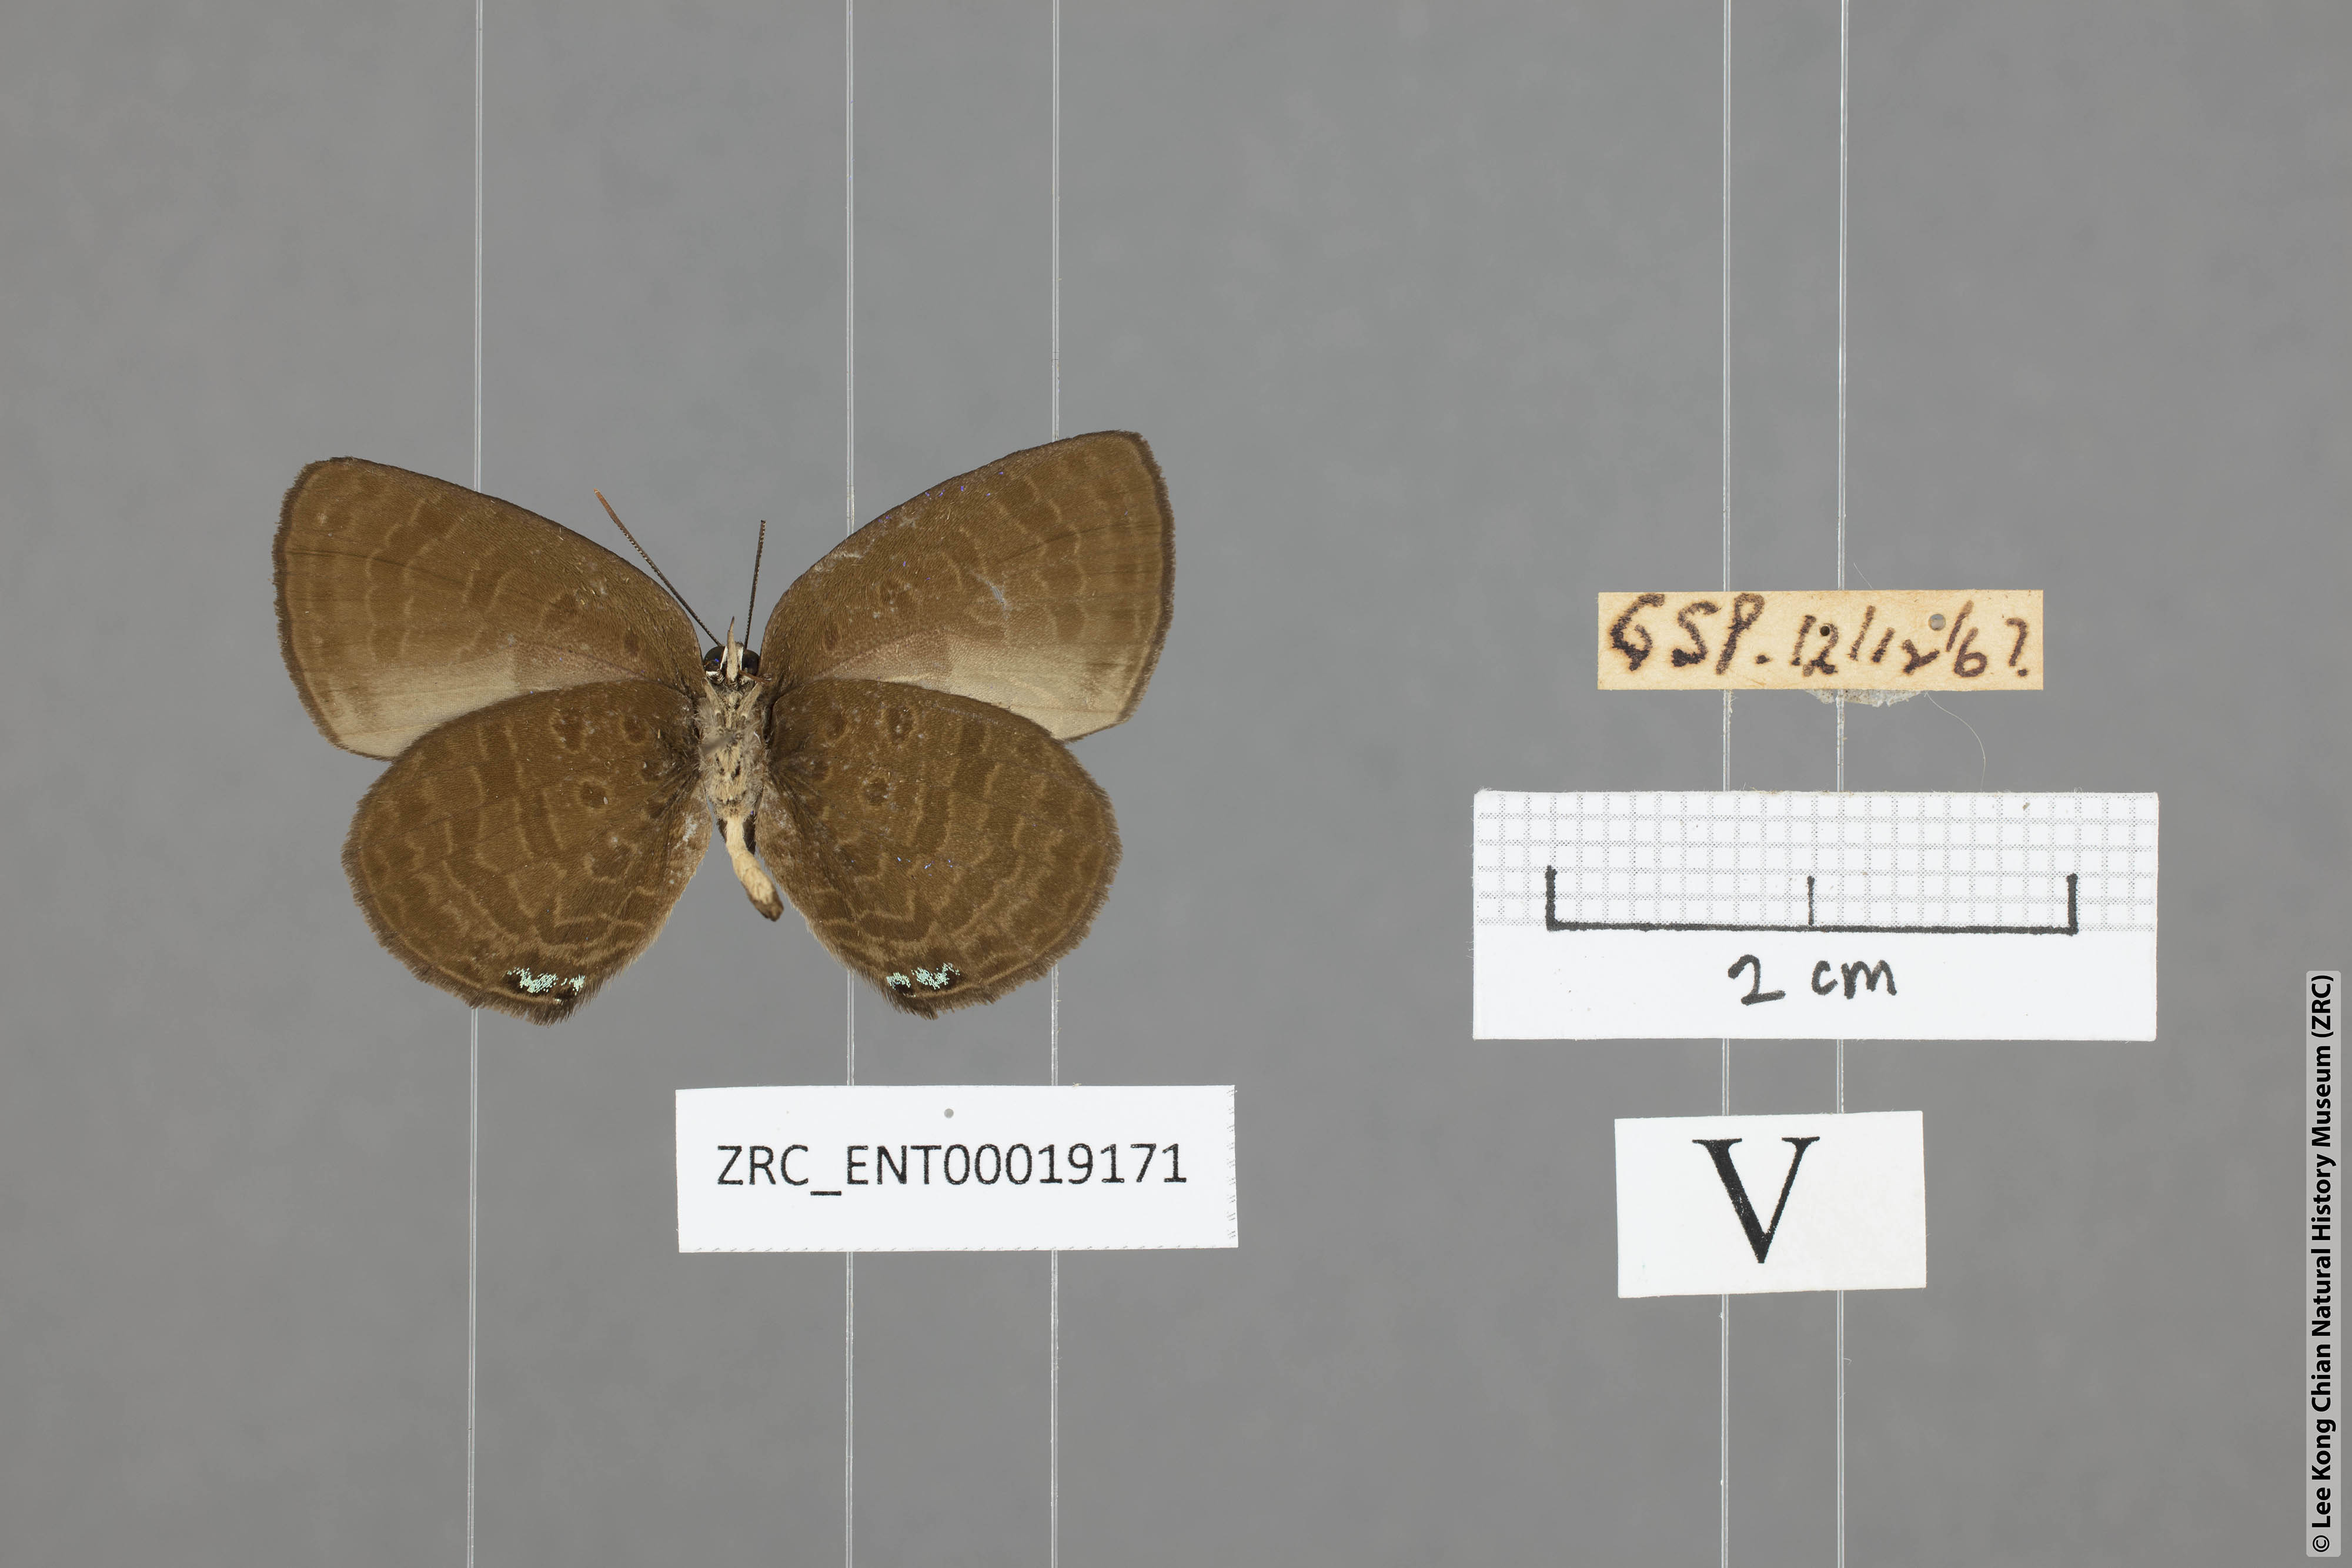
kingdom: Animalia
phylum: Arthropoda
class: Insecta
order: Lepidoptera
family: Lycaenidae
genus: Arhopala
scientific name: Arhopala antimuta
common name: Small tailless oakblue
